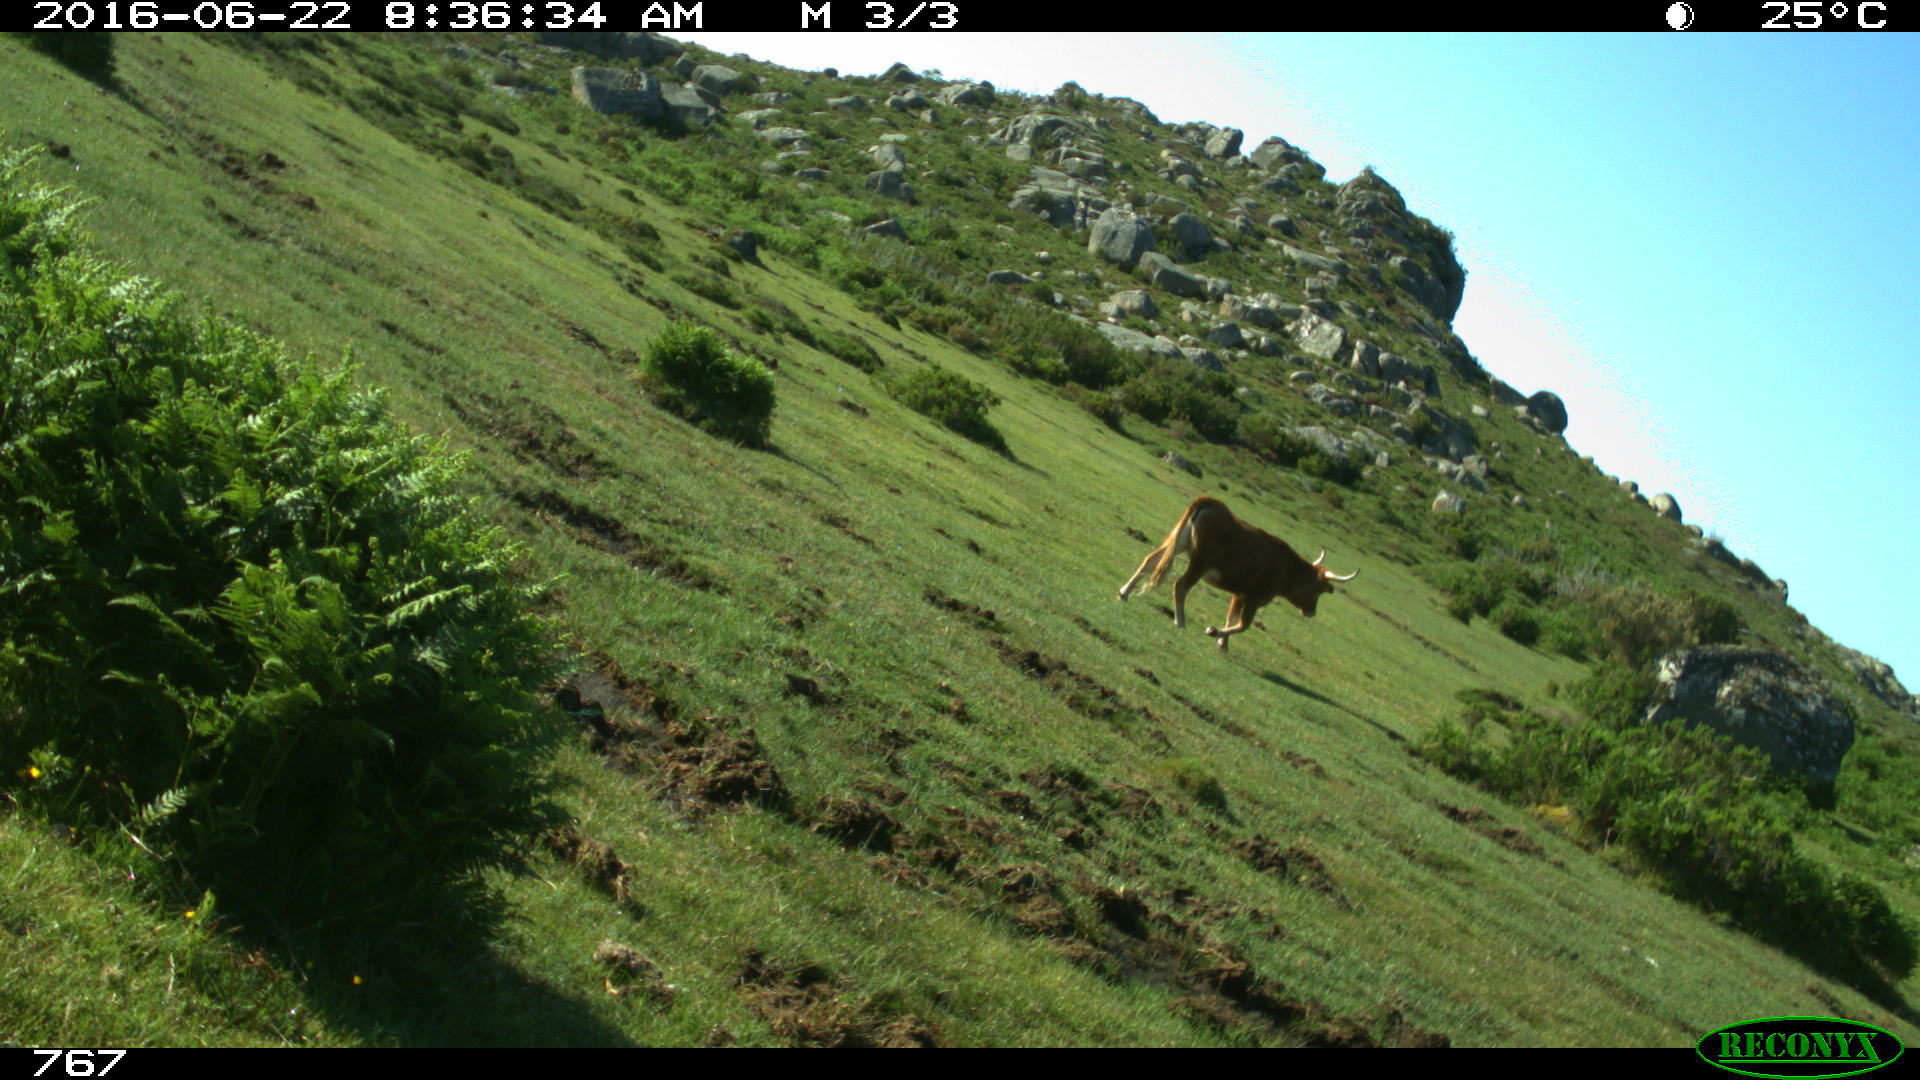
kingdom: Animalia
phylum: Chordata
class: Mammalia
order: Artiodactyla
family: Bovidae
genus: Bos
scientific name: Bos taurus
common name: Domesticated cattle
